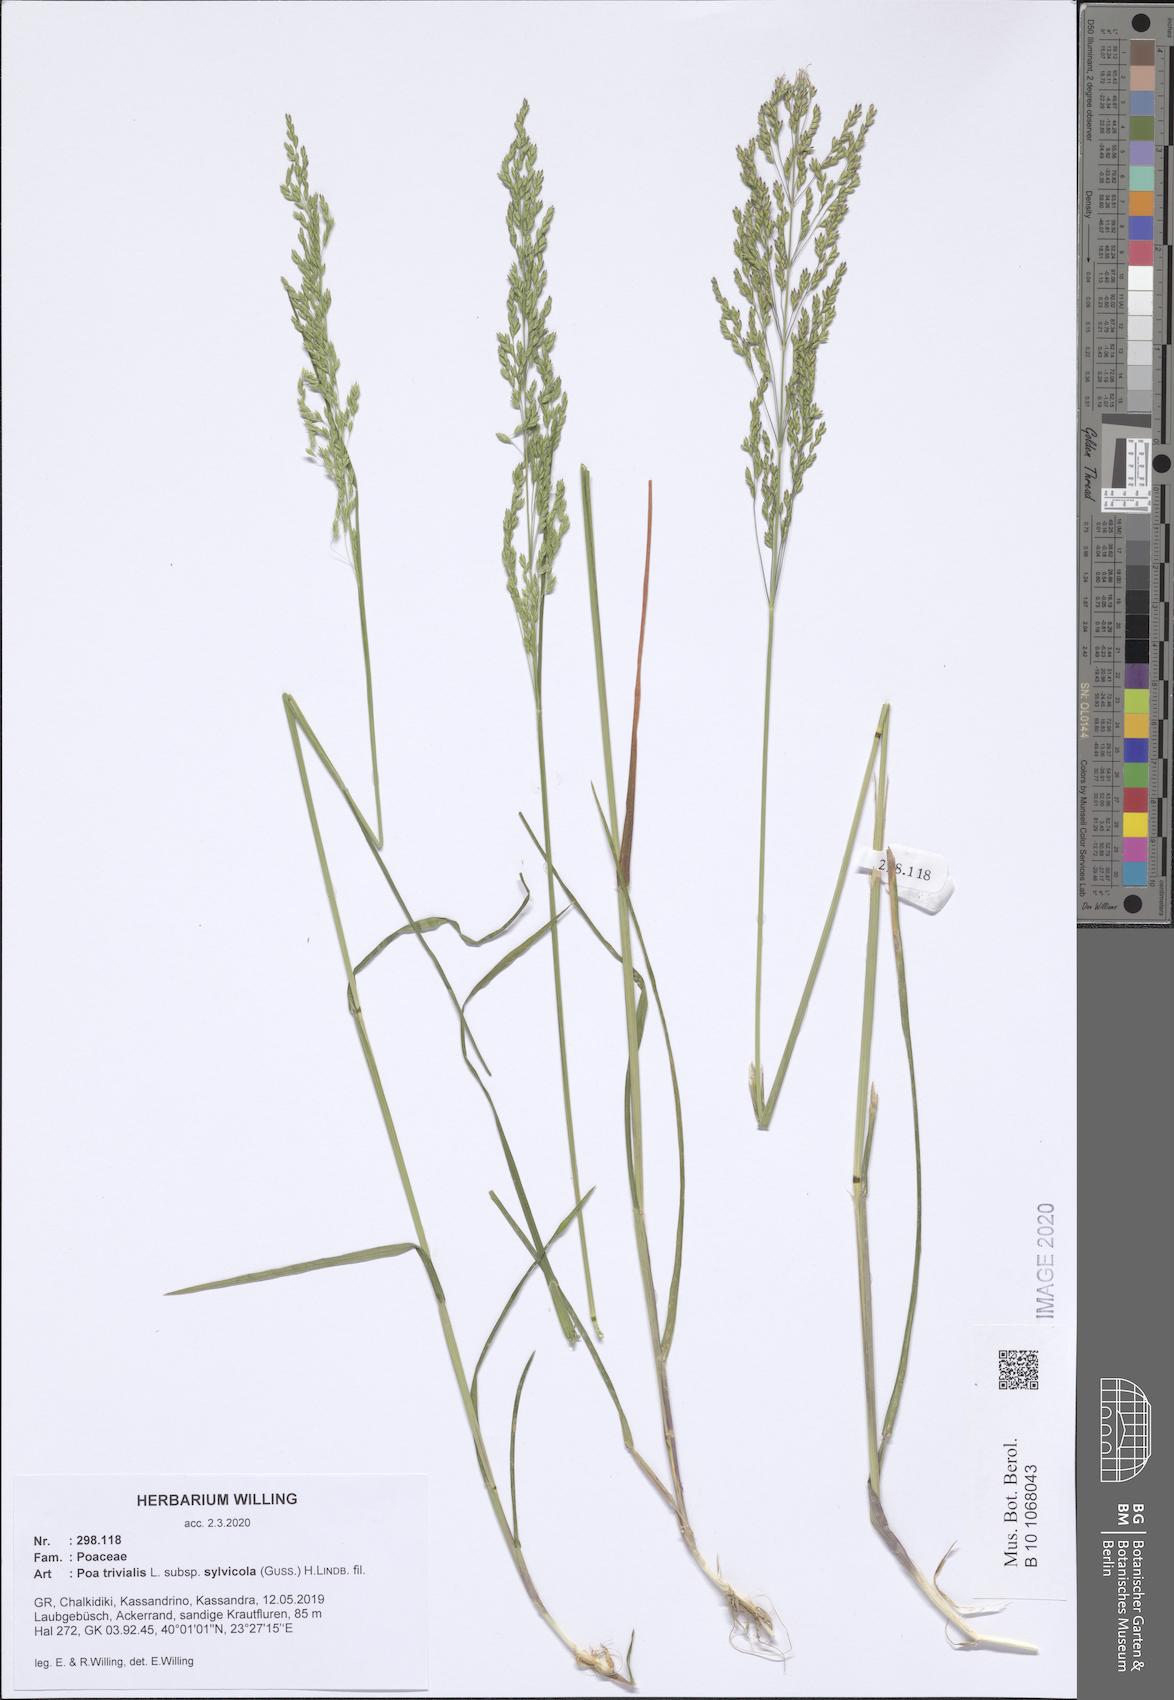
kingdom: Plantae
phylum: Tracheophyta
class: Liliopsida
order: Poales
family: Poaceae
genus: Poa
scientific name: Poa trivialis
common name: Rough bluegrass
